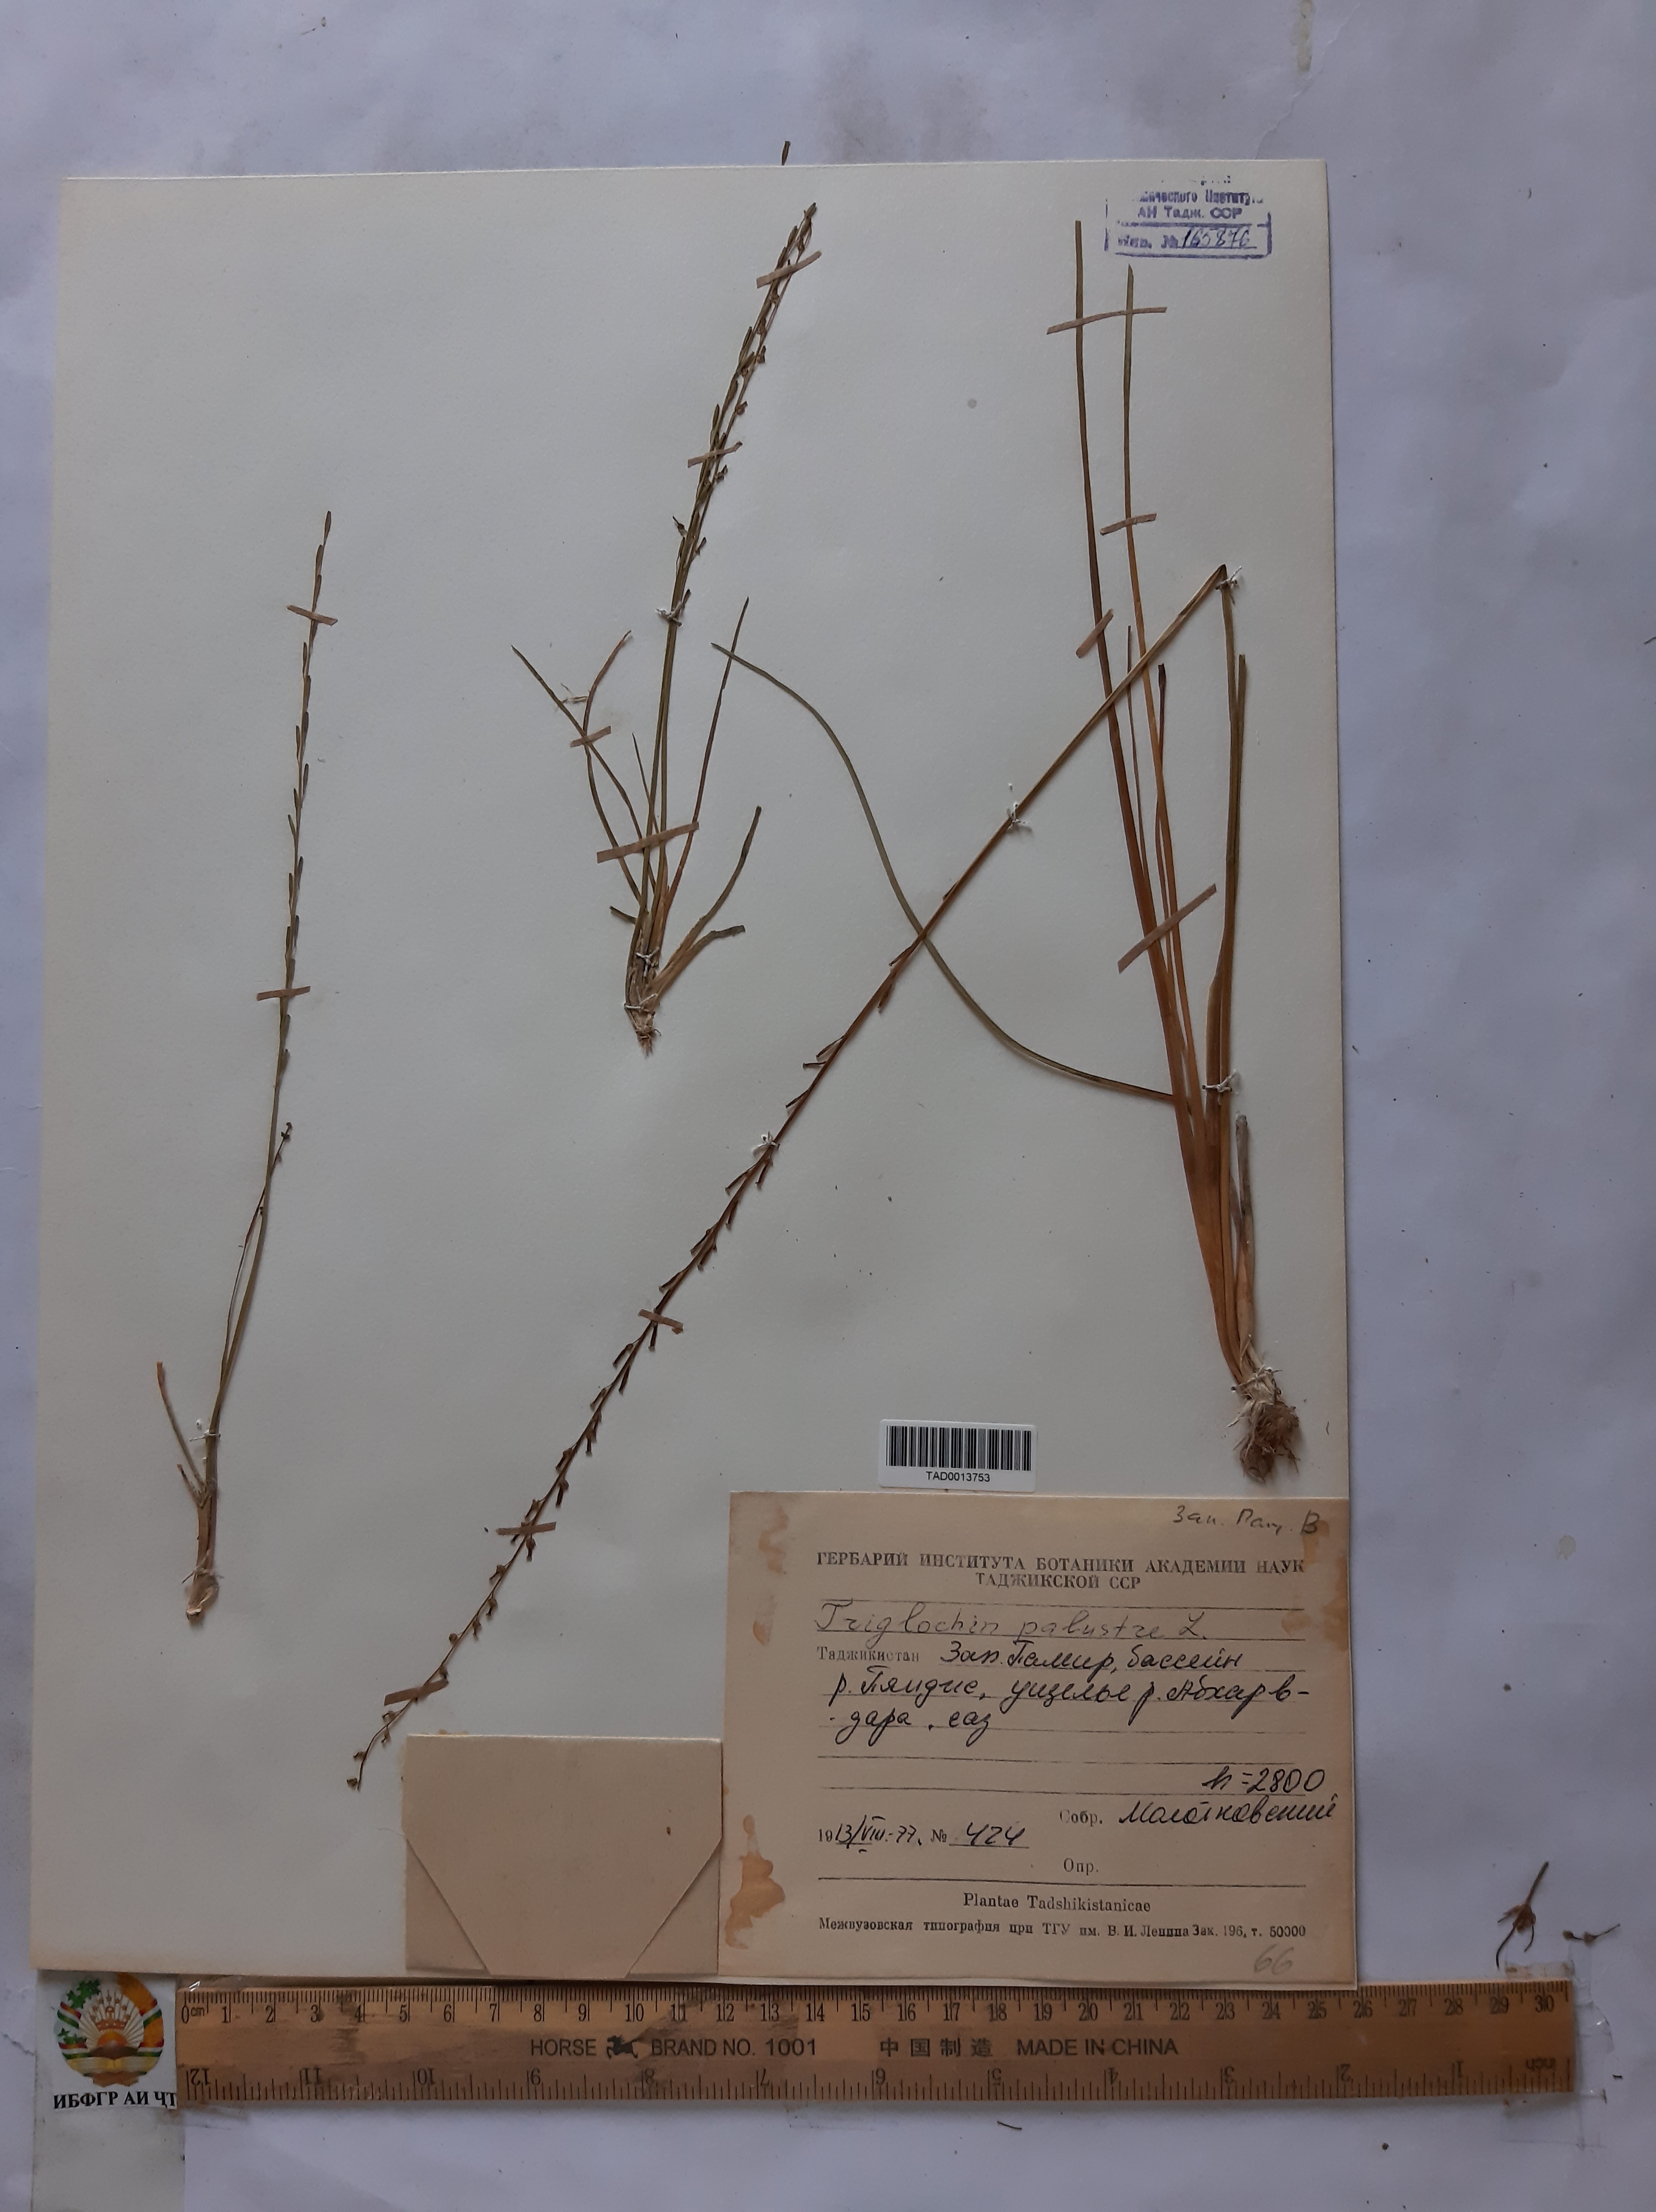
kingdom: Plantae
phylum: Tracheophyta
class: Liliopsida
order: Alismatales
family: Juncaginaceae
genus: Triglochin
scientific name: Triglochin palustris
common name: Marsh arrowgrass
